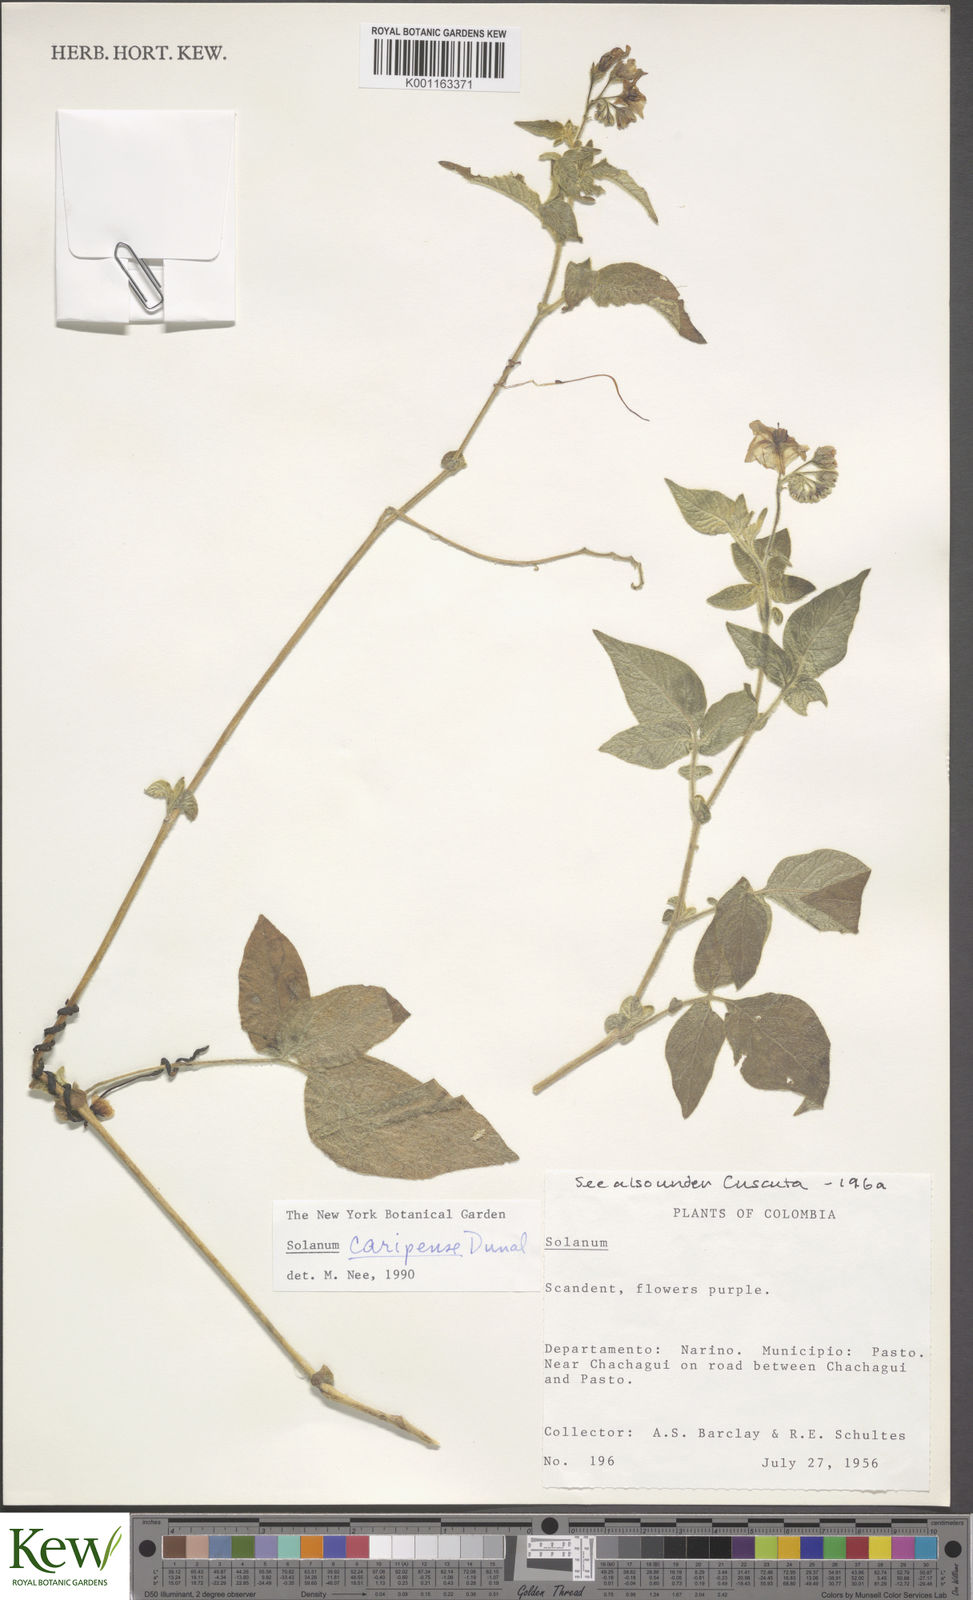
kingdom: Plantae
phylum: Tracheophyta
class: Magnoliopsida
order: Solanales
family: Solanaceae
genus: Solanum
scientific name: Solanum caripense
